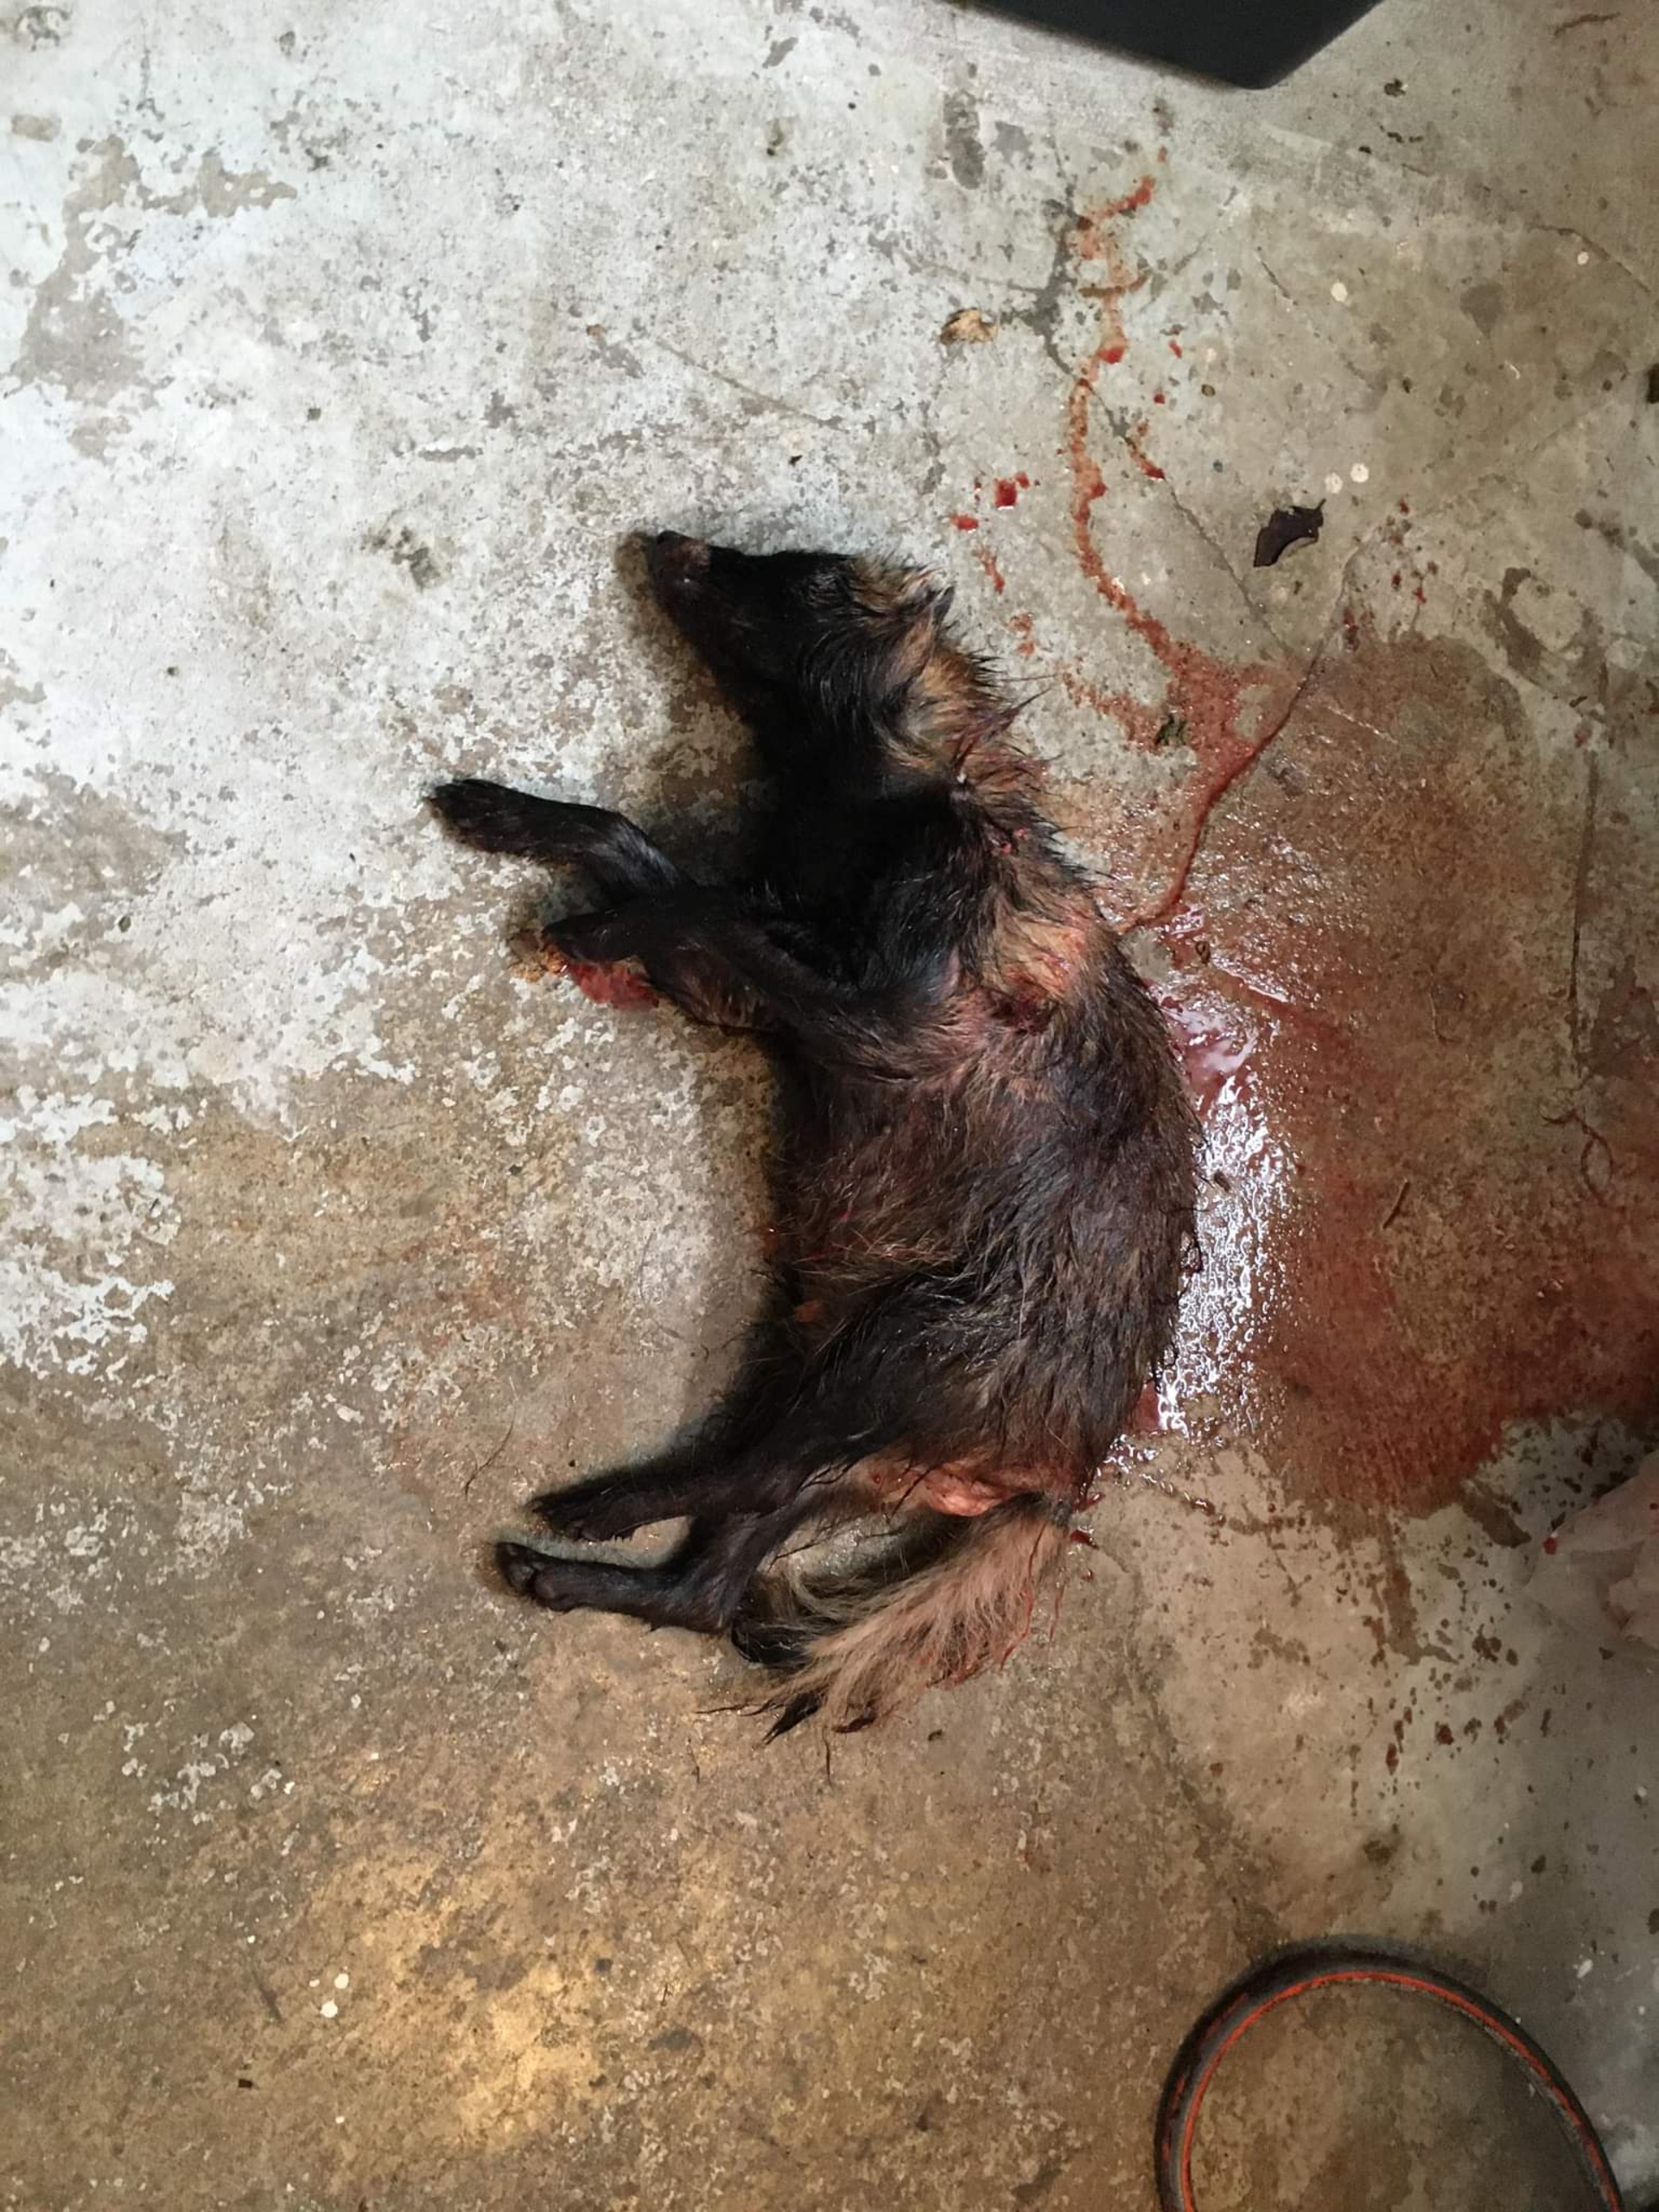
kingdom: Animalia
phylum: Chordata
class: Mammalia
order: Carnivora
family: Canidae
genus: Nyctereutes
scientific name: Nyctereutes procyonoides
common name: Mårhund
